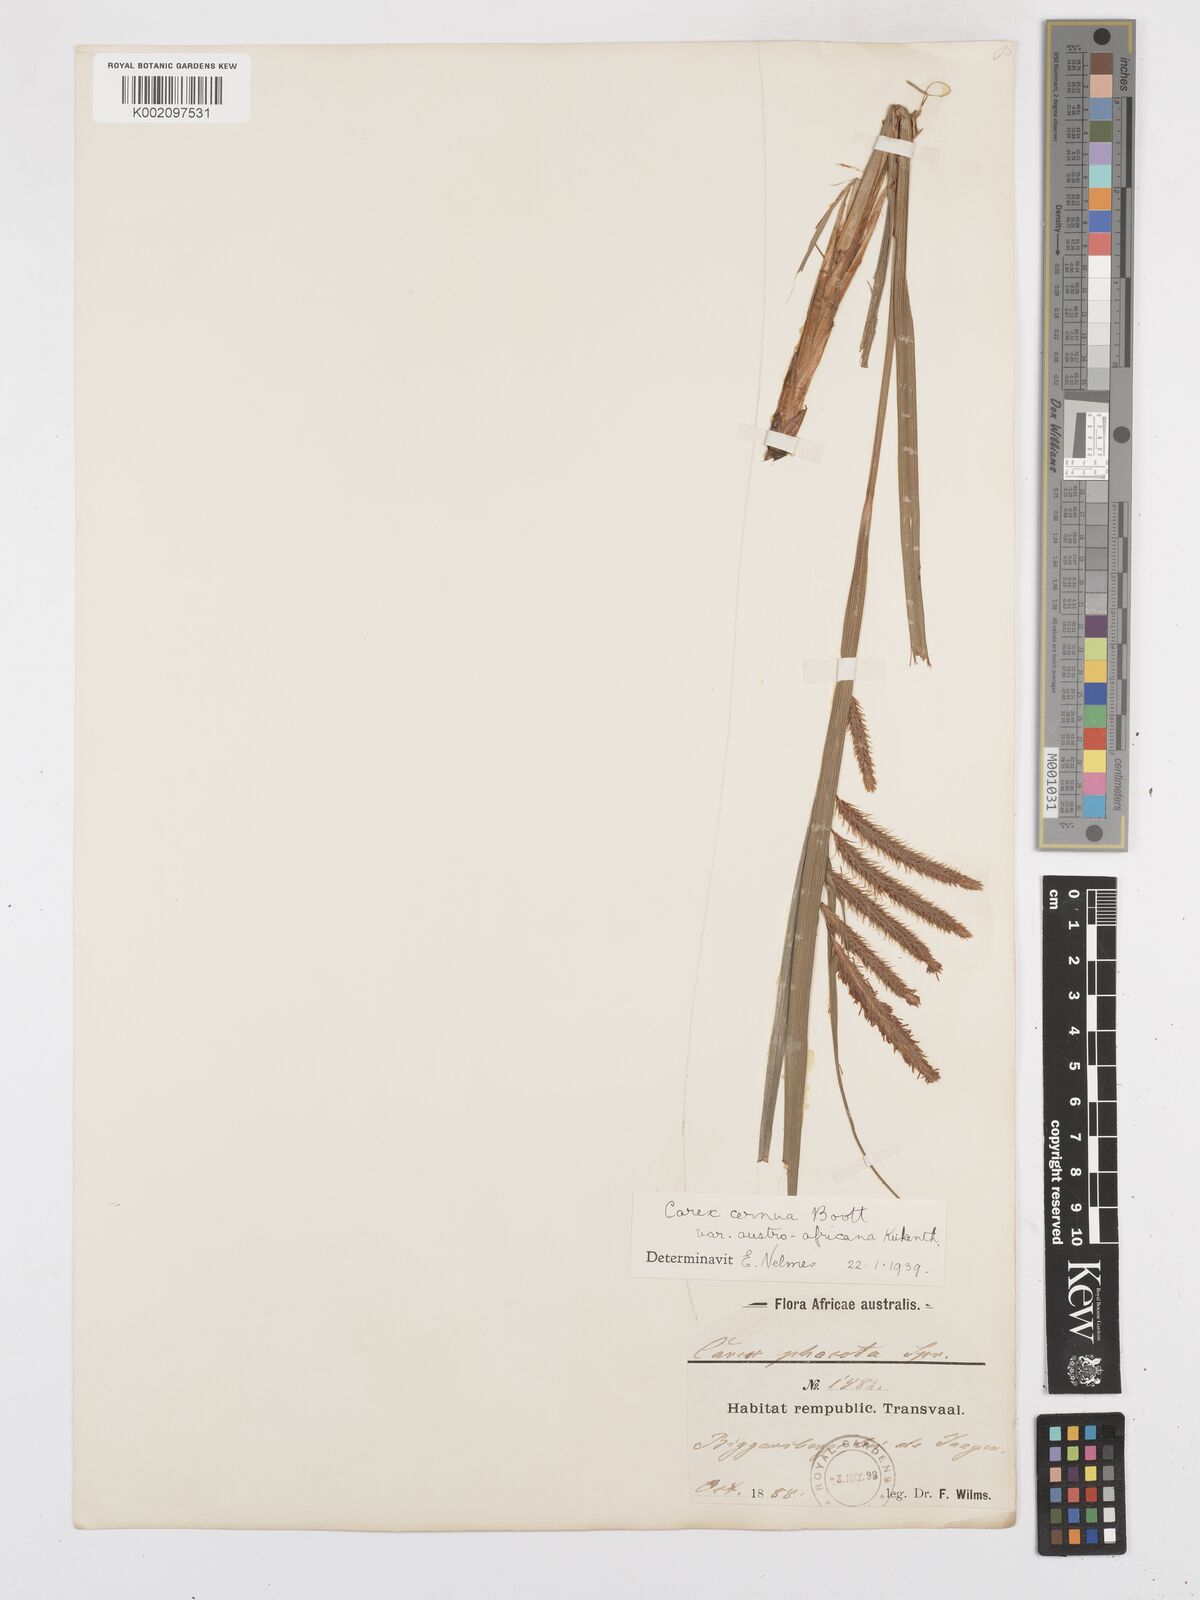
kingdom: Plantae
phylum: Tracheophyta
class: Liliopsida
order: Poales
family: Cyperaceae
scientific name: Cyperaceae
